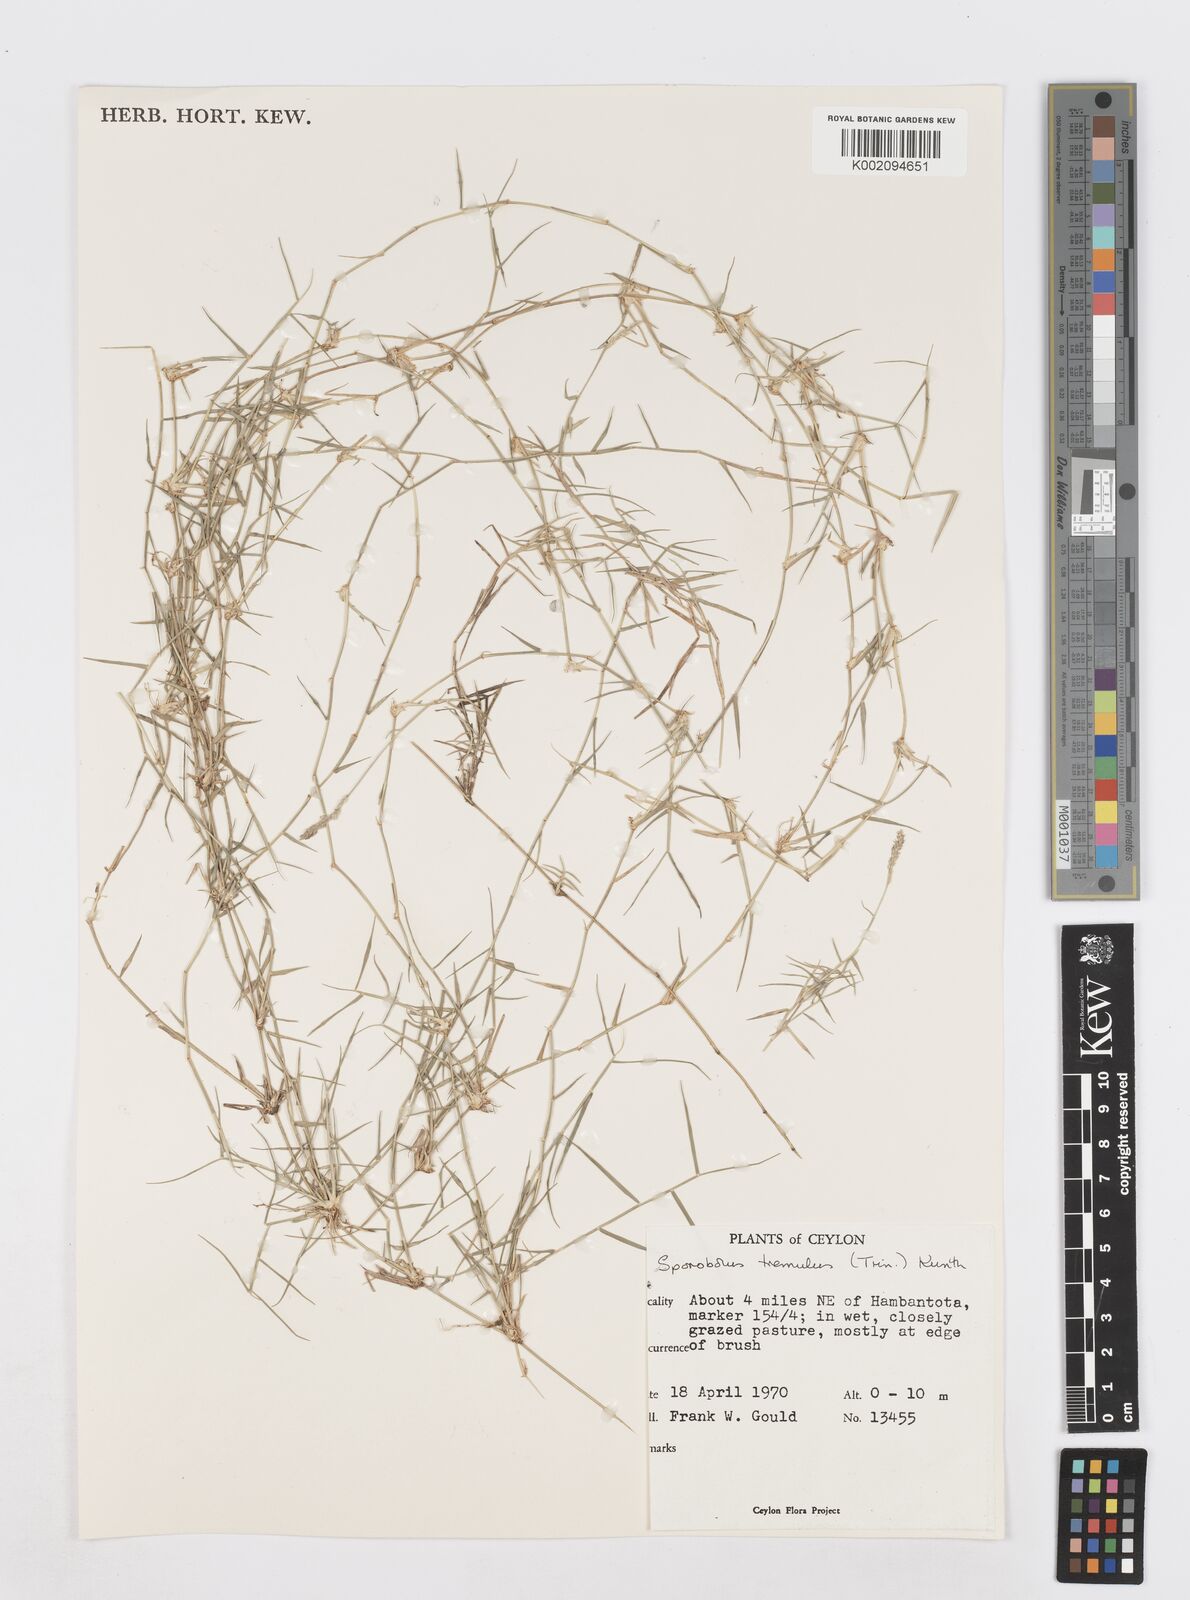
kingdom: Plantae
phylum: Tracheophyta
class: Liliopsida
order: Poales
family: Poaceae
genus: Sporobolus
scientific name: Sporobolus virginicus
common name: Beach dropseed
